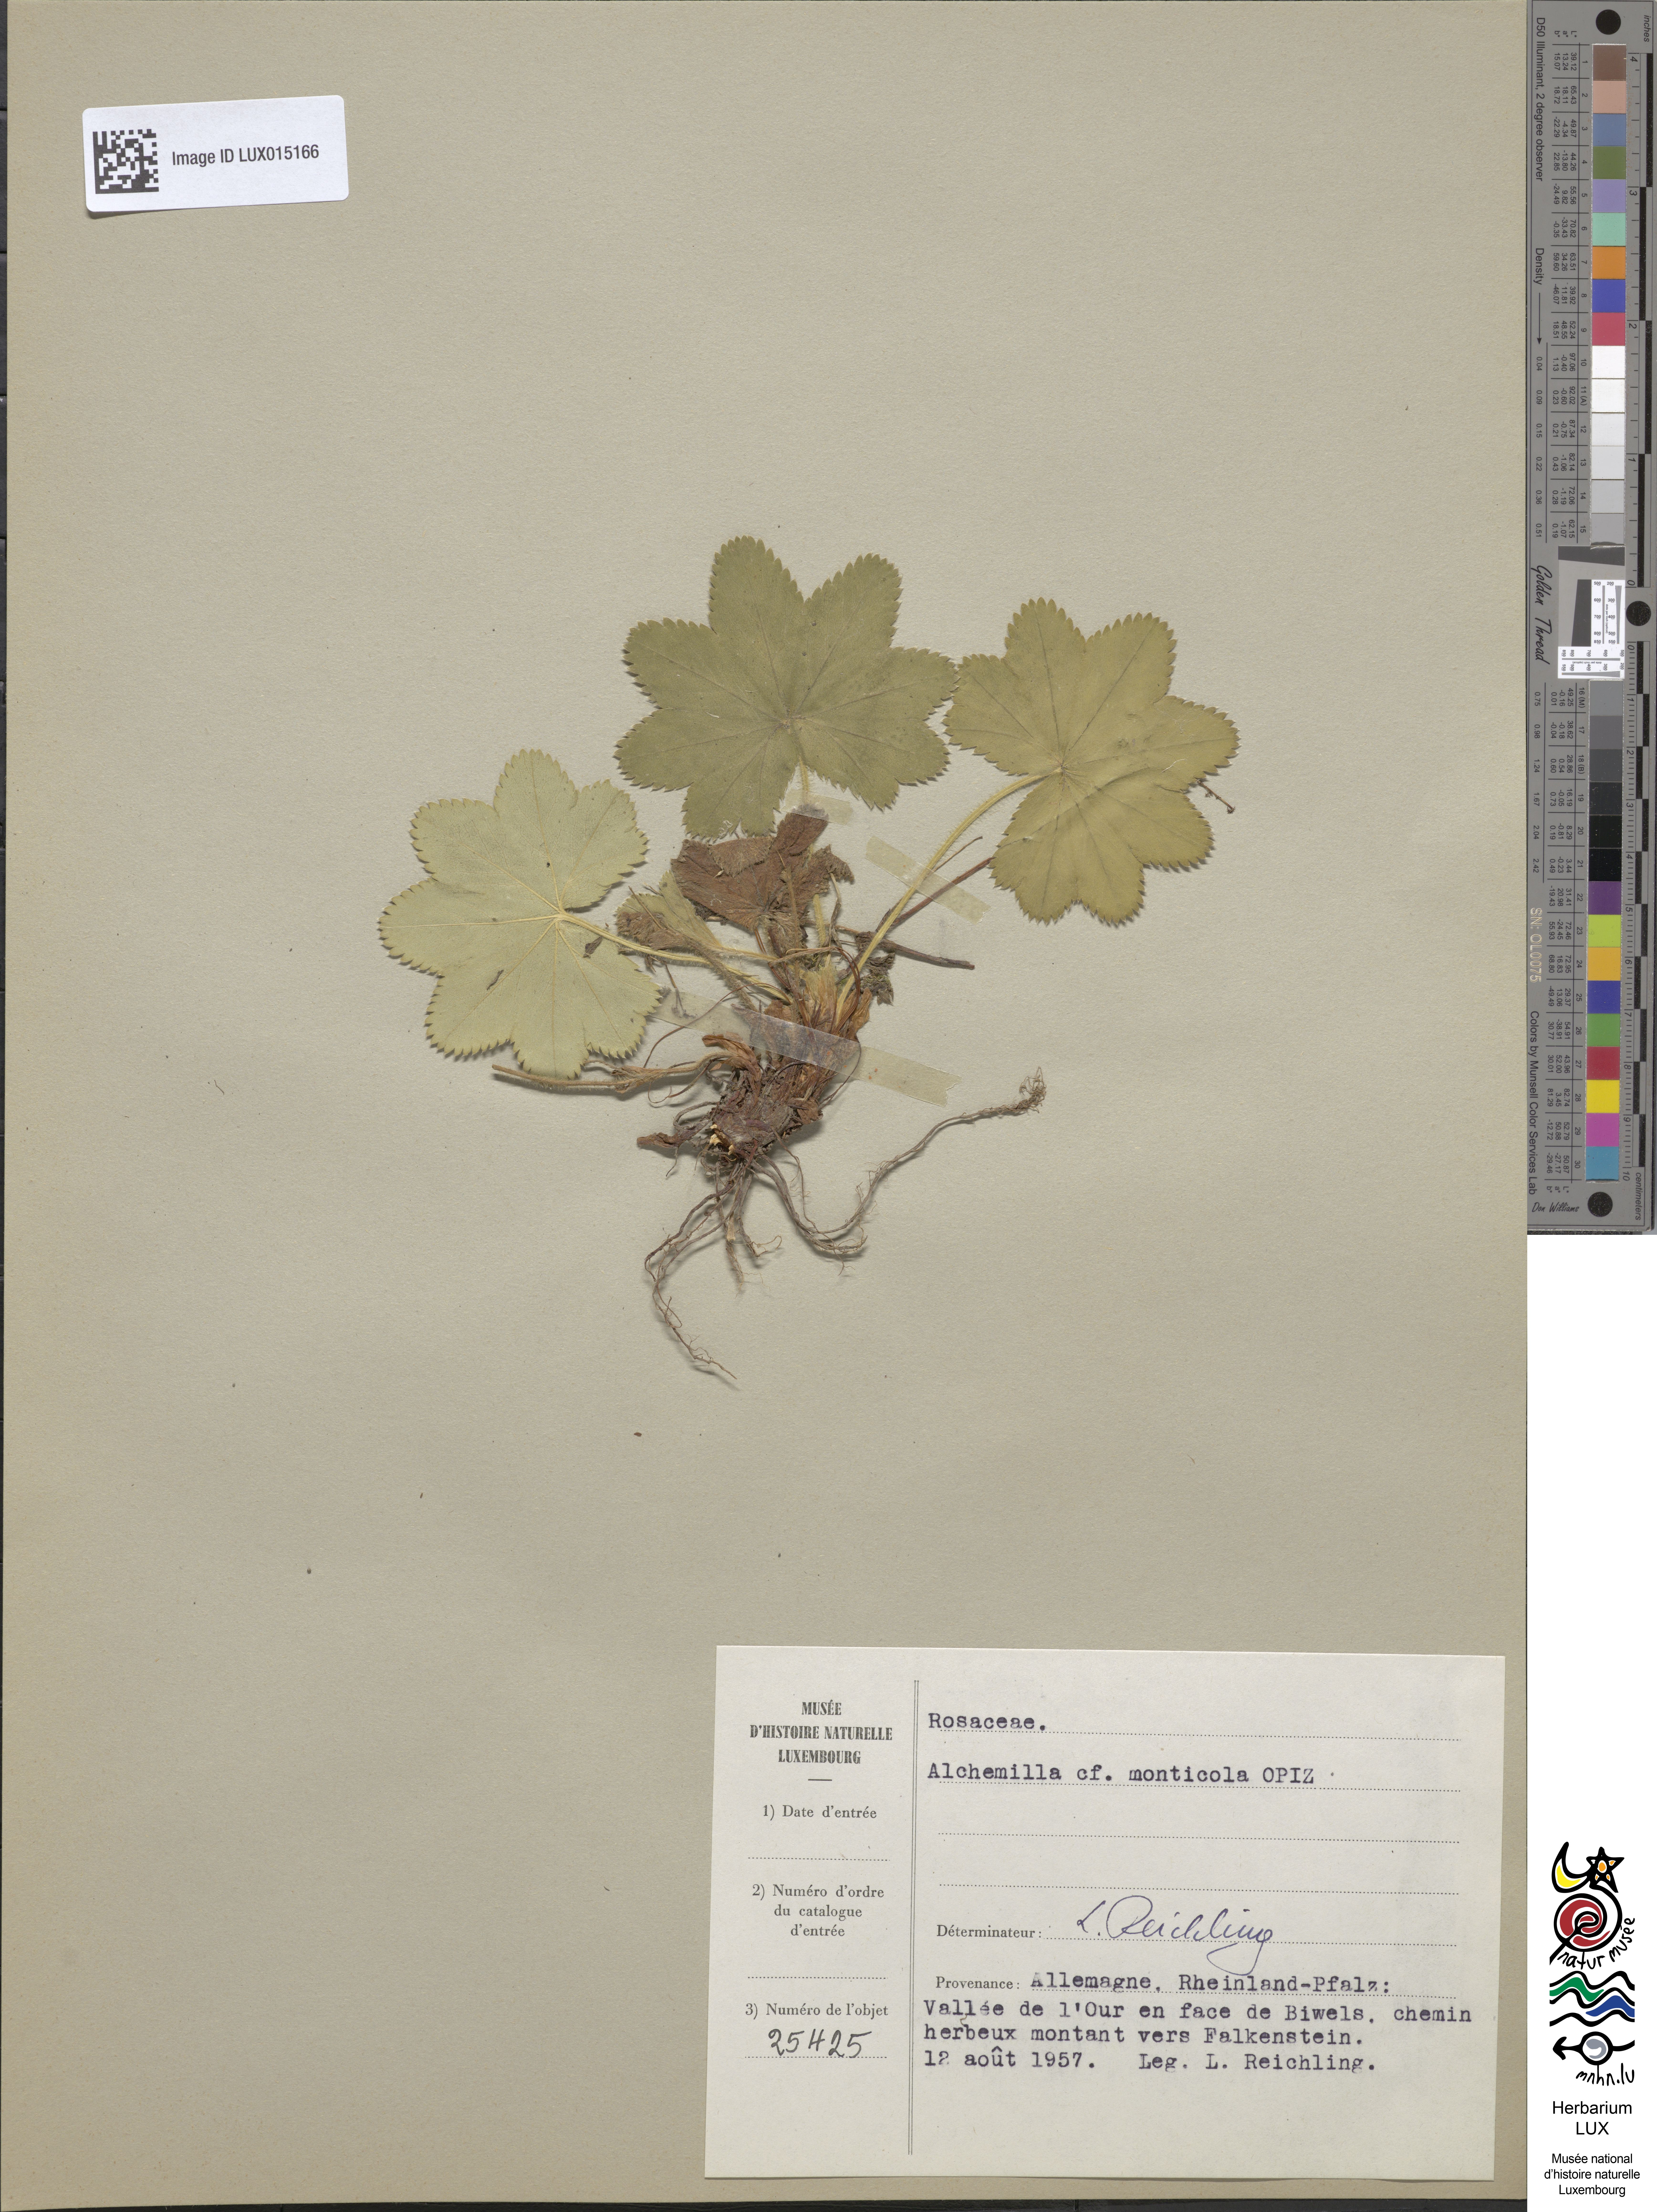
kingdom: Plantae
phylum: Tracheophyta
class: Magnoliopsida
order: Rosales
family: Rosaceae
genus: Alchemilla
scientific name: Alchemilla monticola
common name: Hairy lady's mantle
